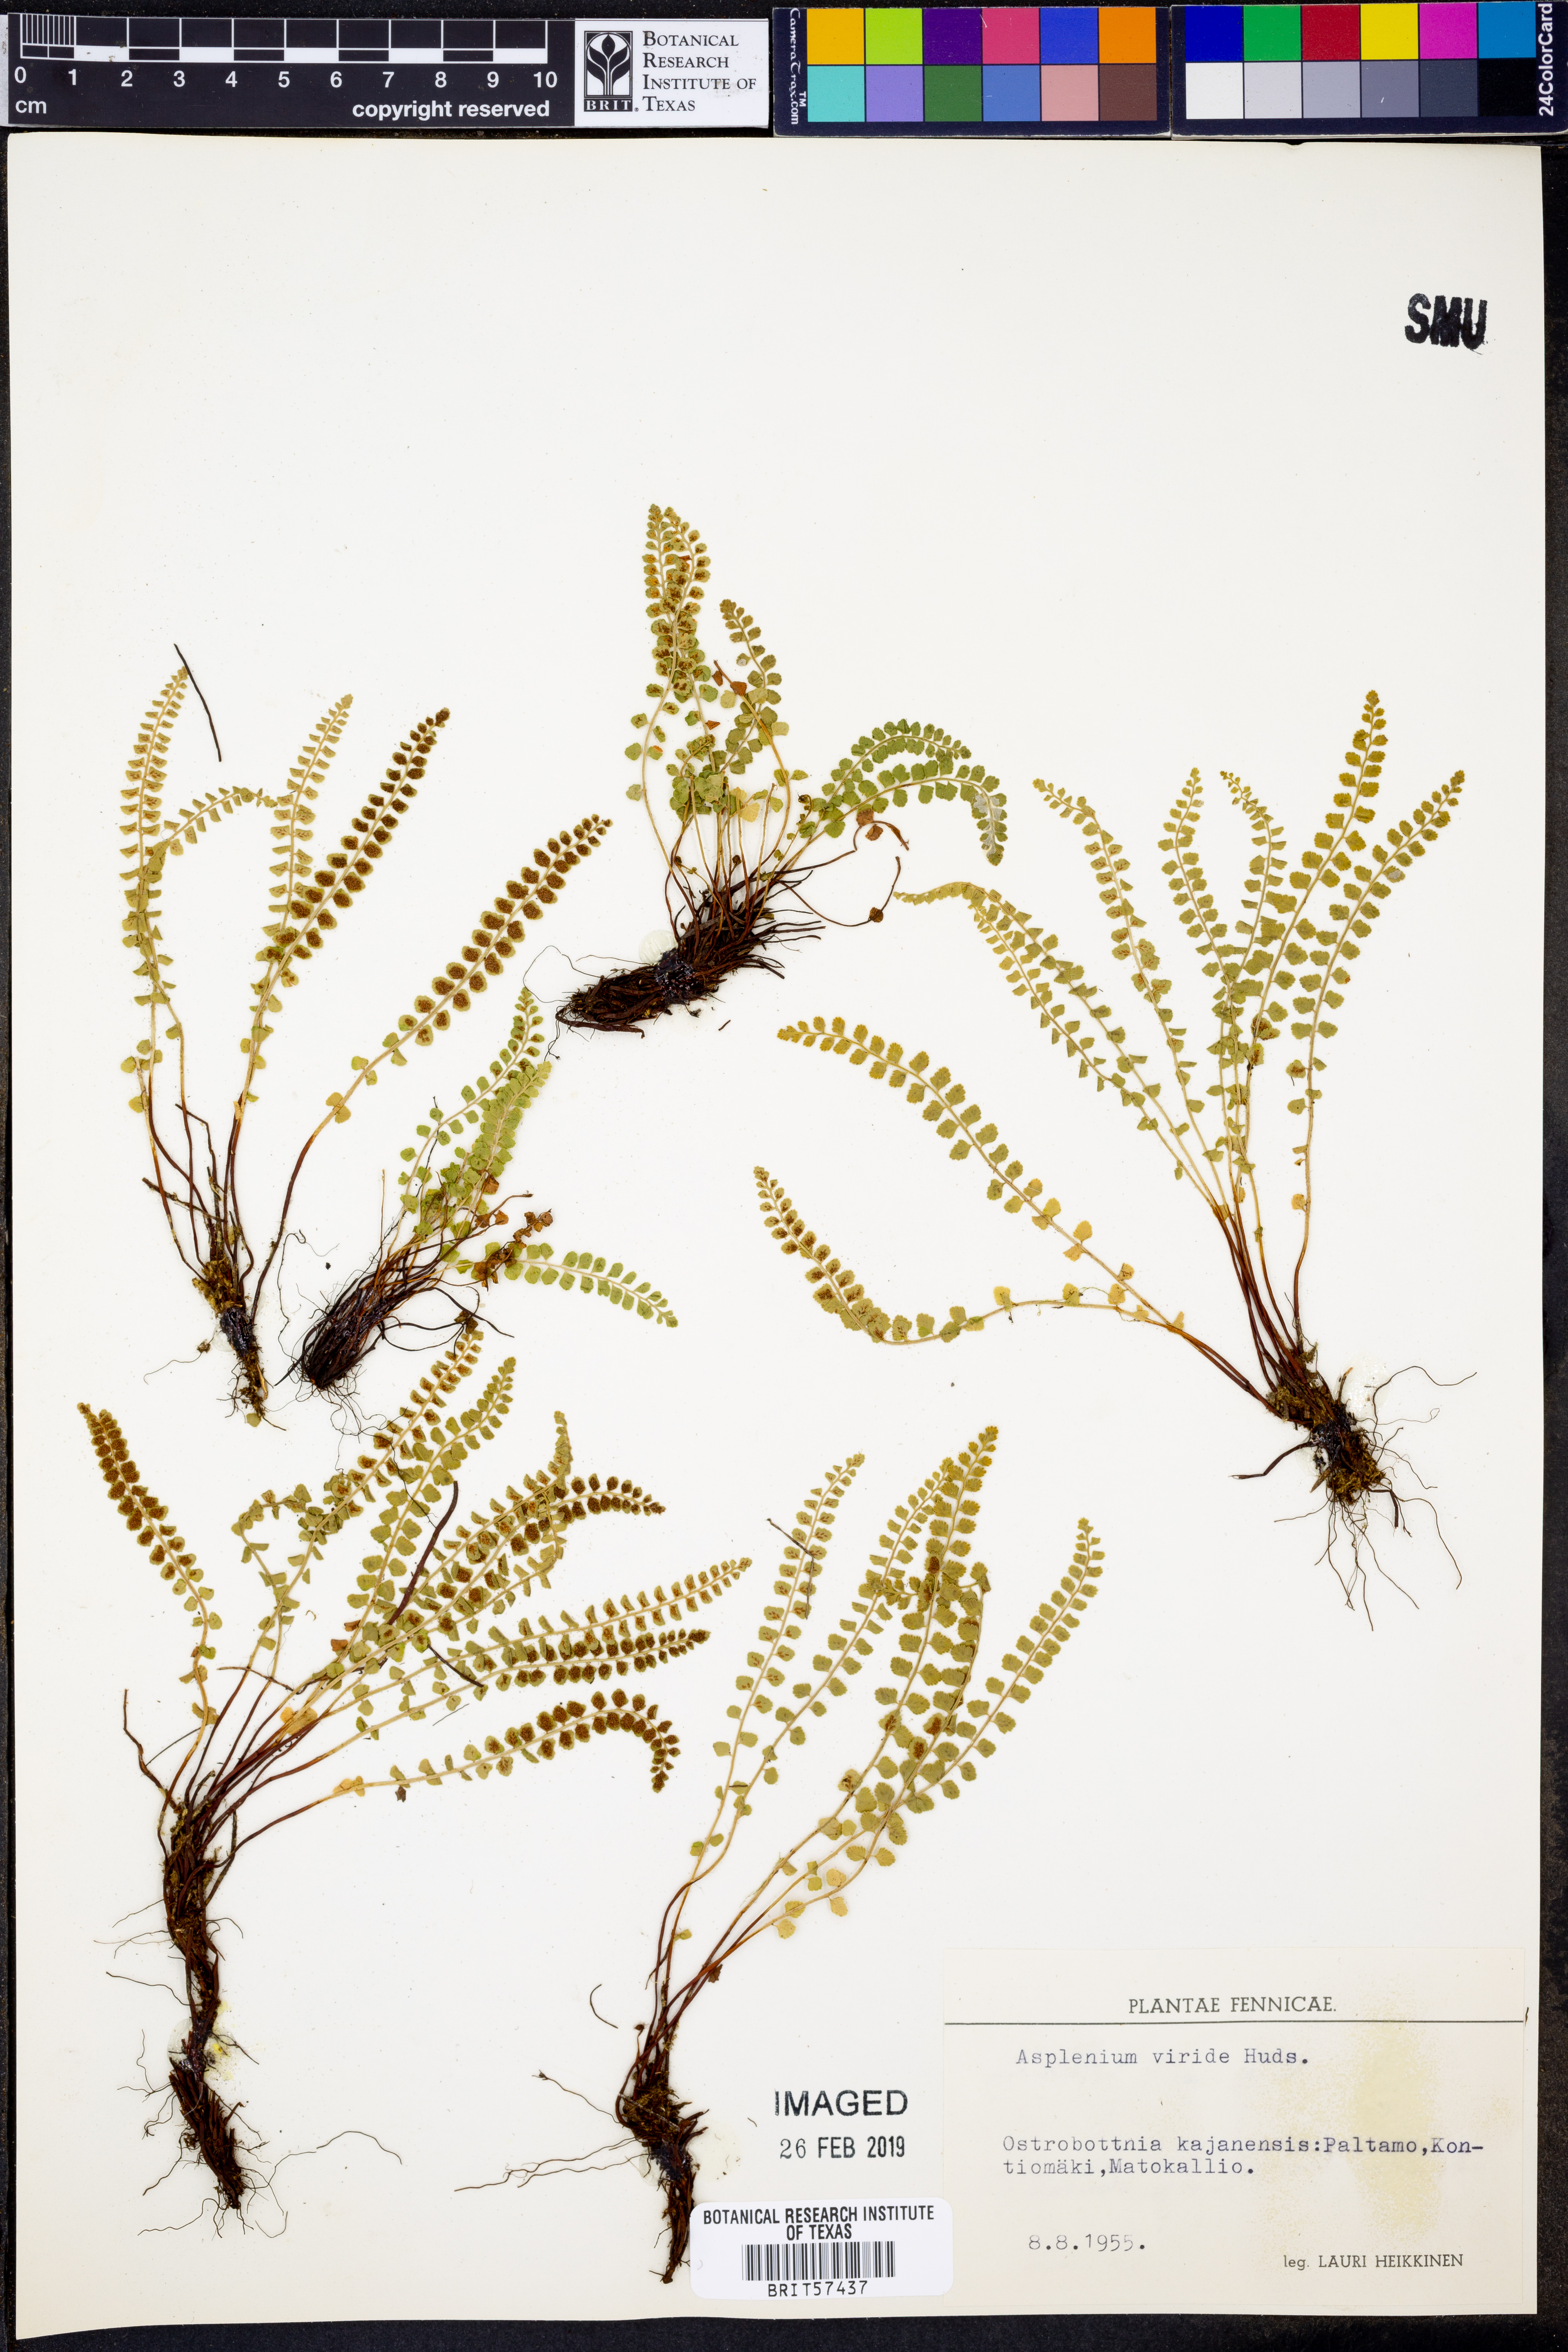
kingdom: Plantae
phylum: Tracheophyta
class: Polypodiopsida
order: Polypodiales
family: Aspleniaceae
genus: Asplenium
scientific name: Asplenium viride
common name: Green spleenwort
